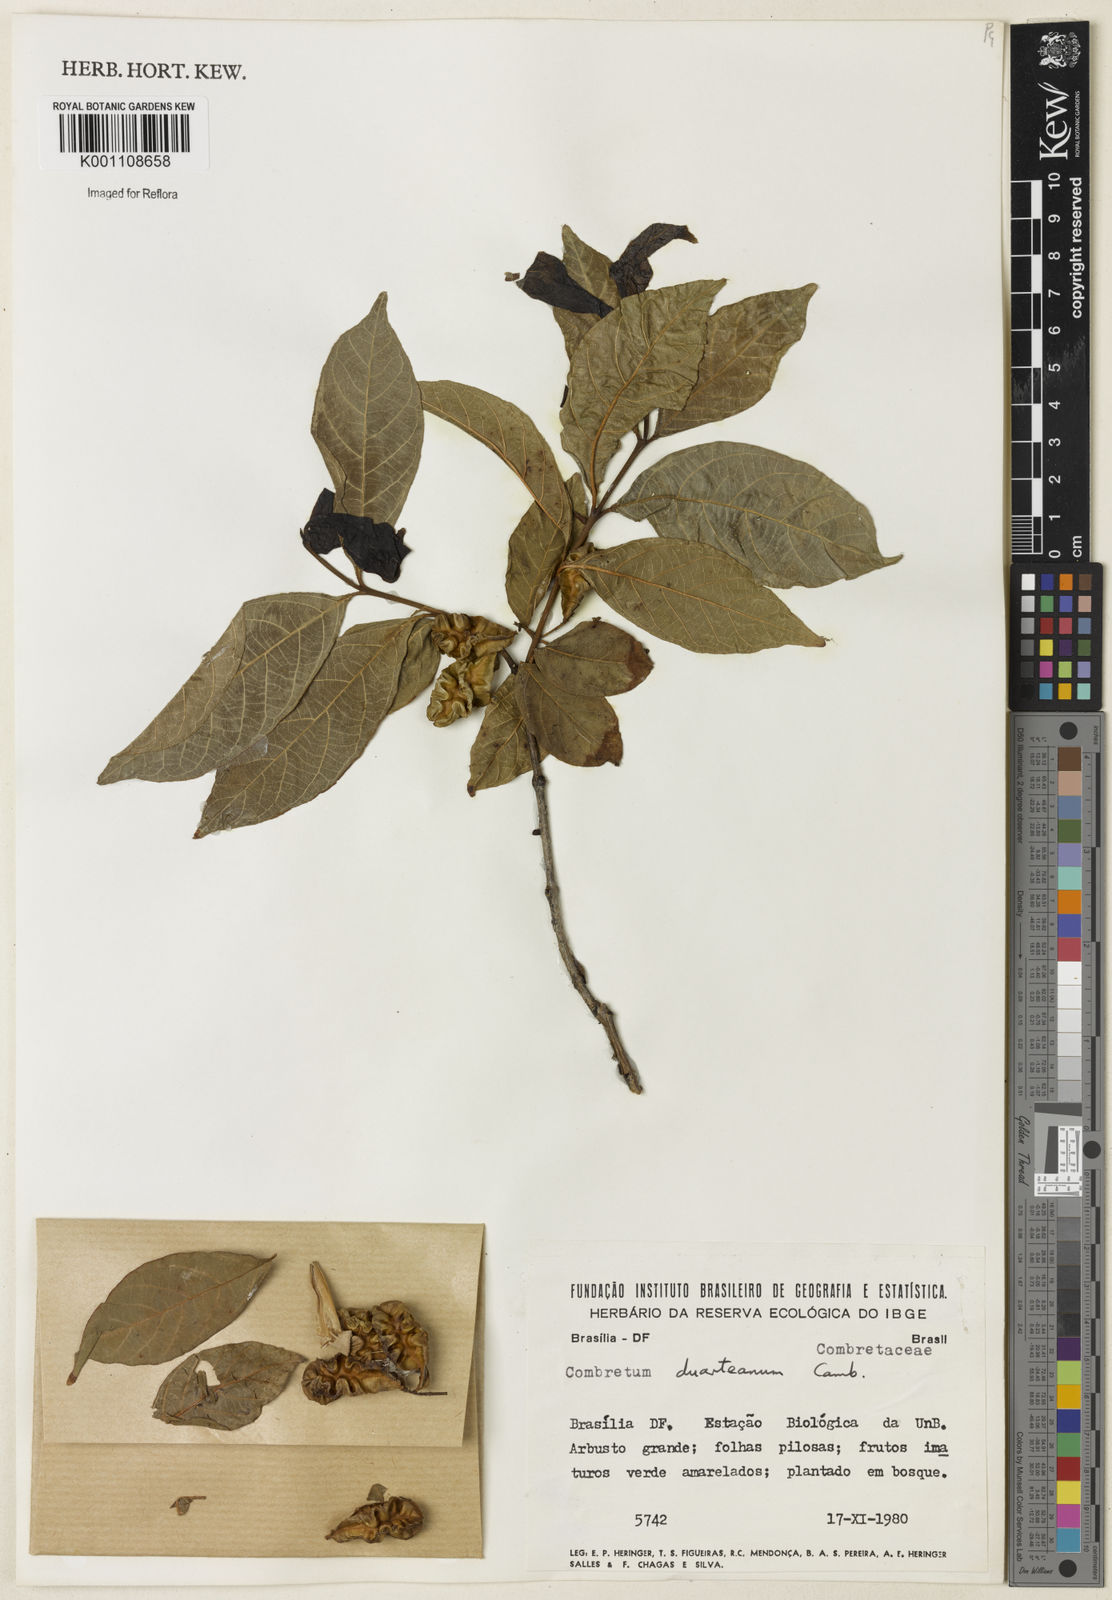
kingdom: Plantae
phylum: Tracheophyta
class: Magnoliopsida
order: Myrtales
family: Combretaceae
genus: Combretum
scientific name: Combretum duarteanum
